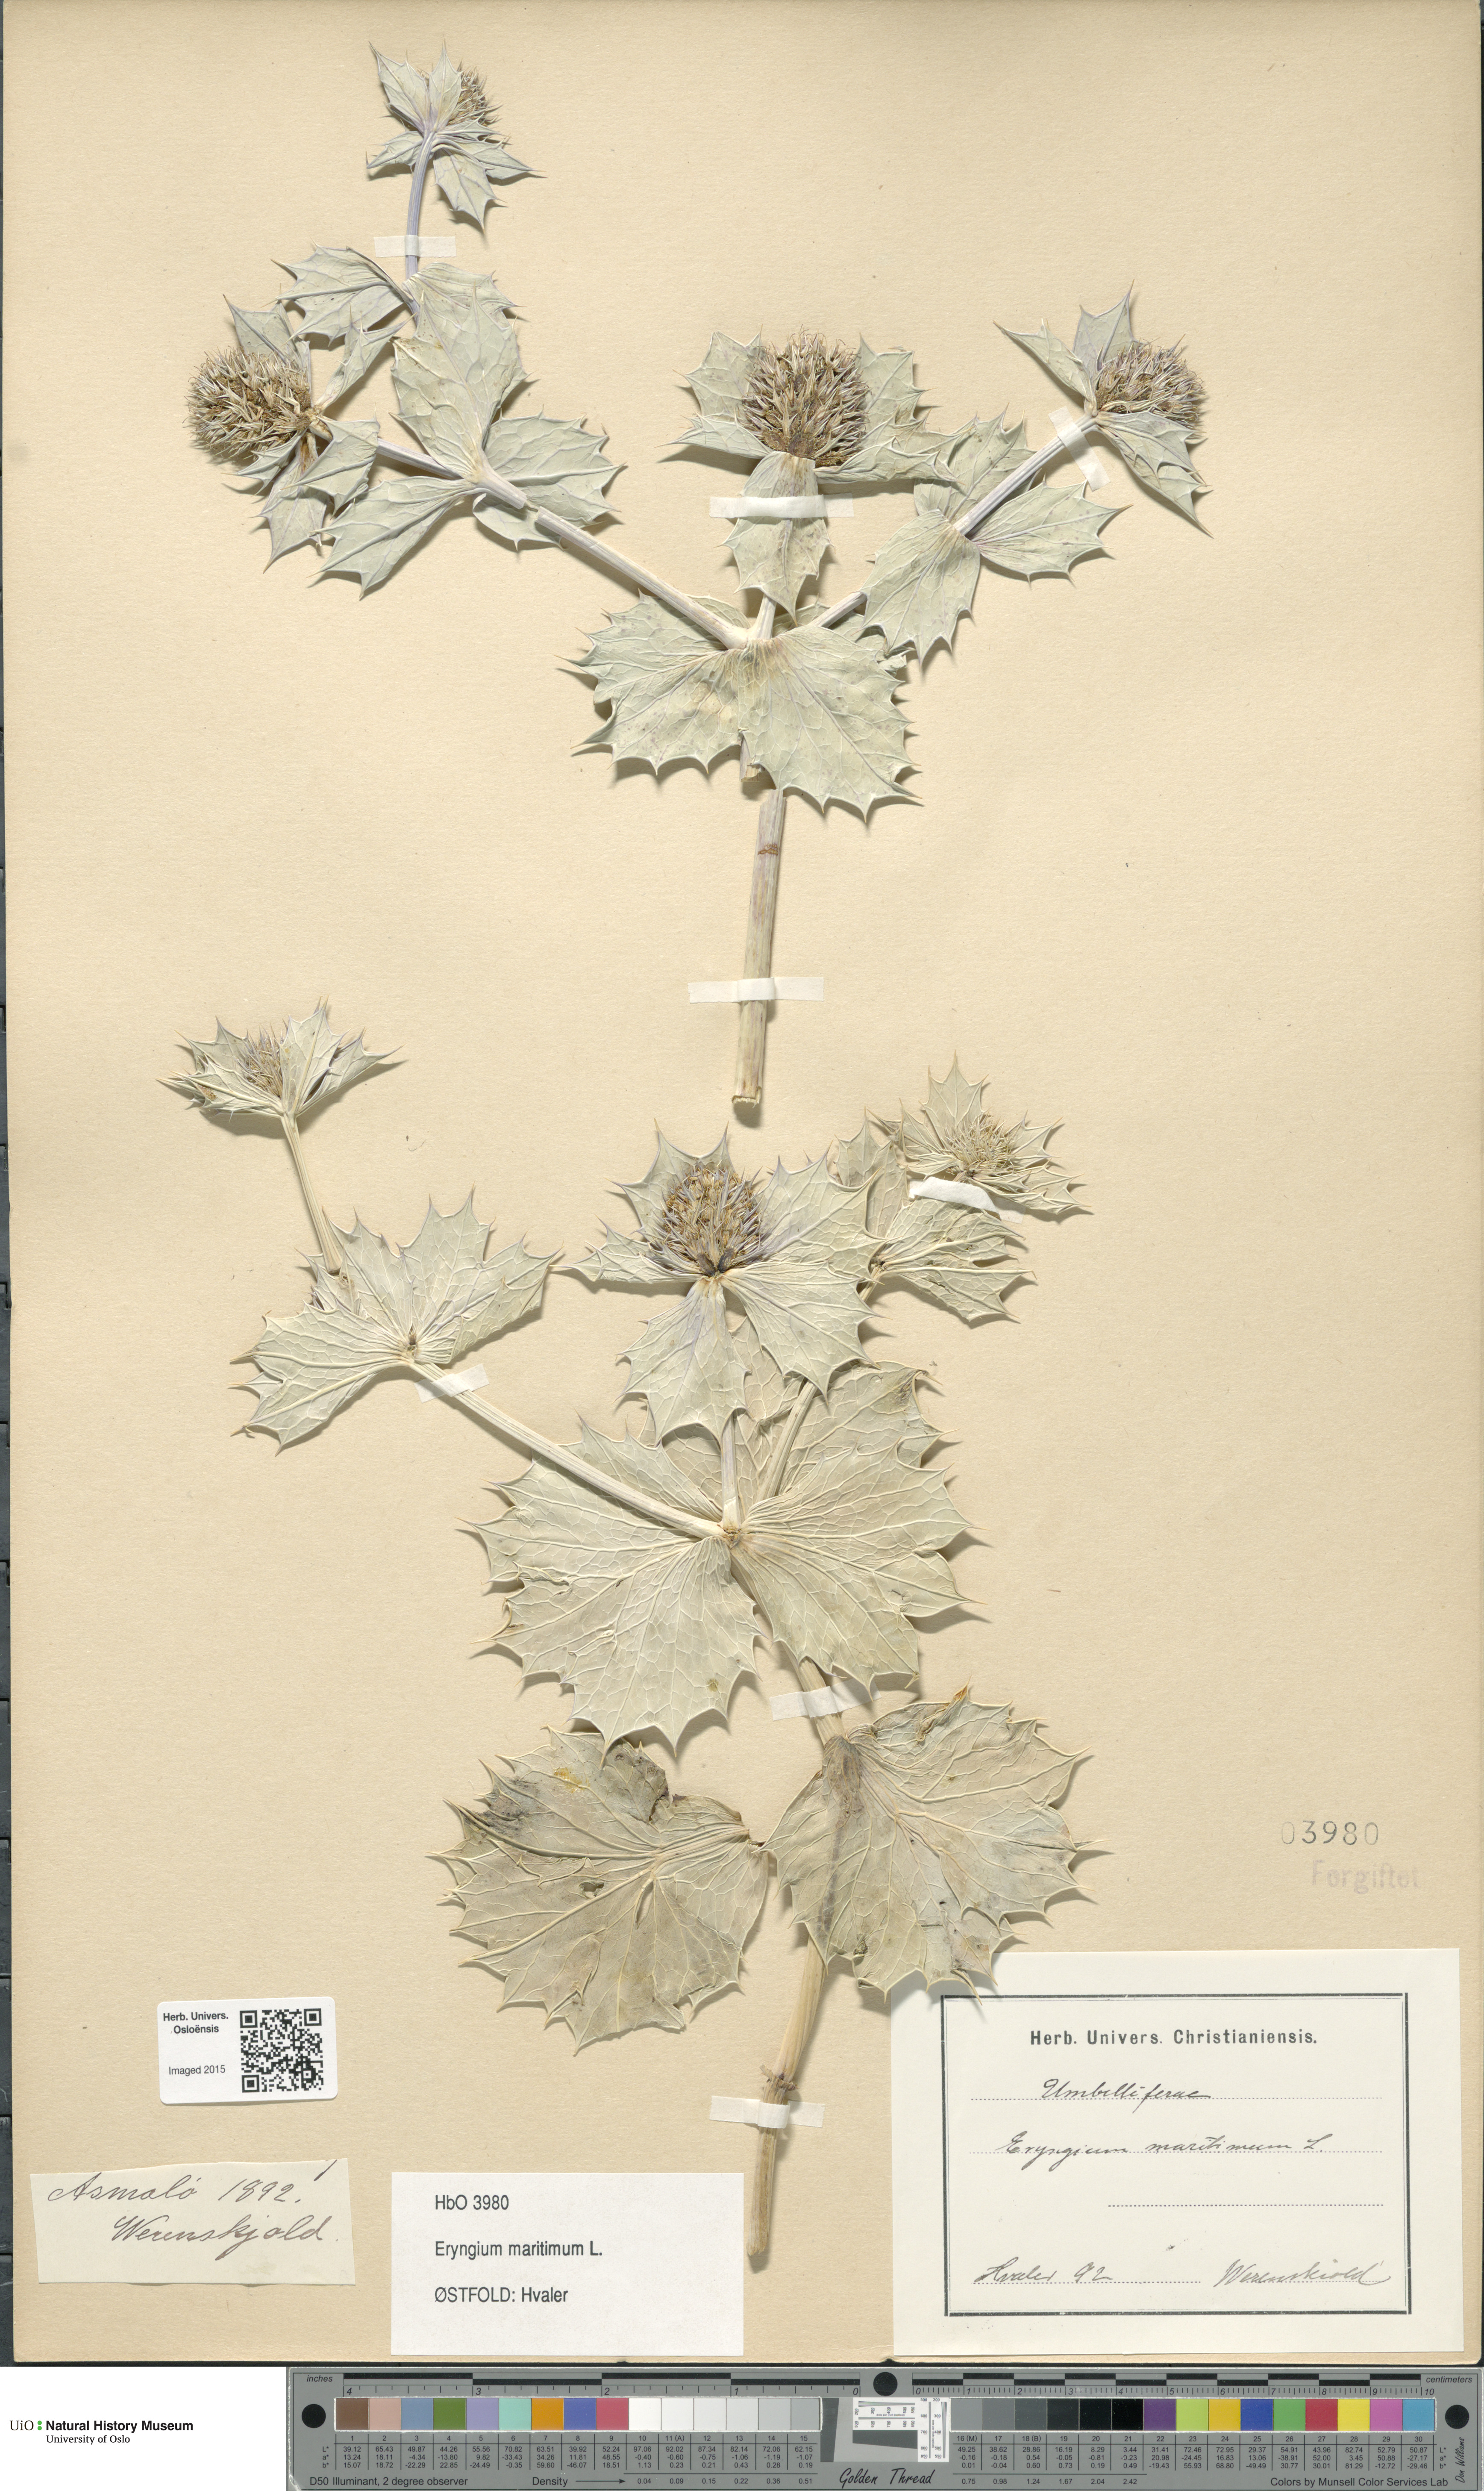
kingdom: Plantae
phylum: Tracheophyta
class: Magnoliopsida
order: Apiales
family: Apiaceae
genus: Eryngium
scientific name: Eryngium maritimum
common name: Sea-holly
